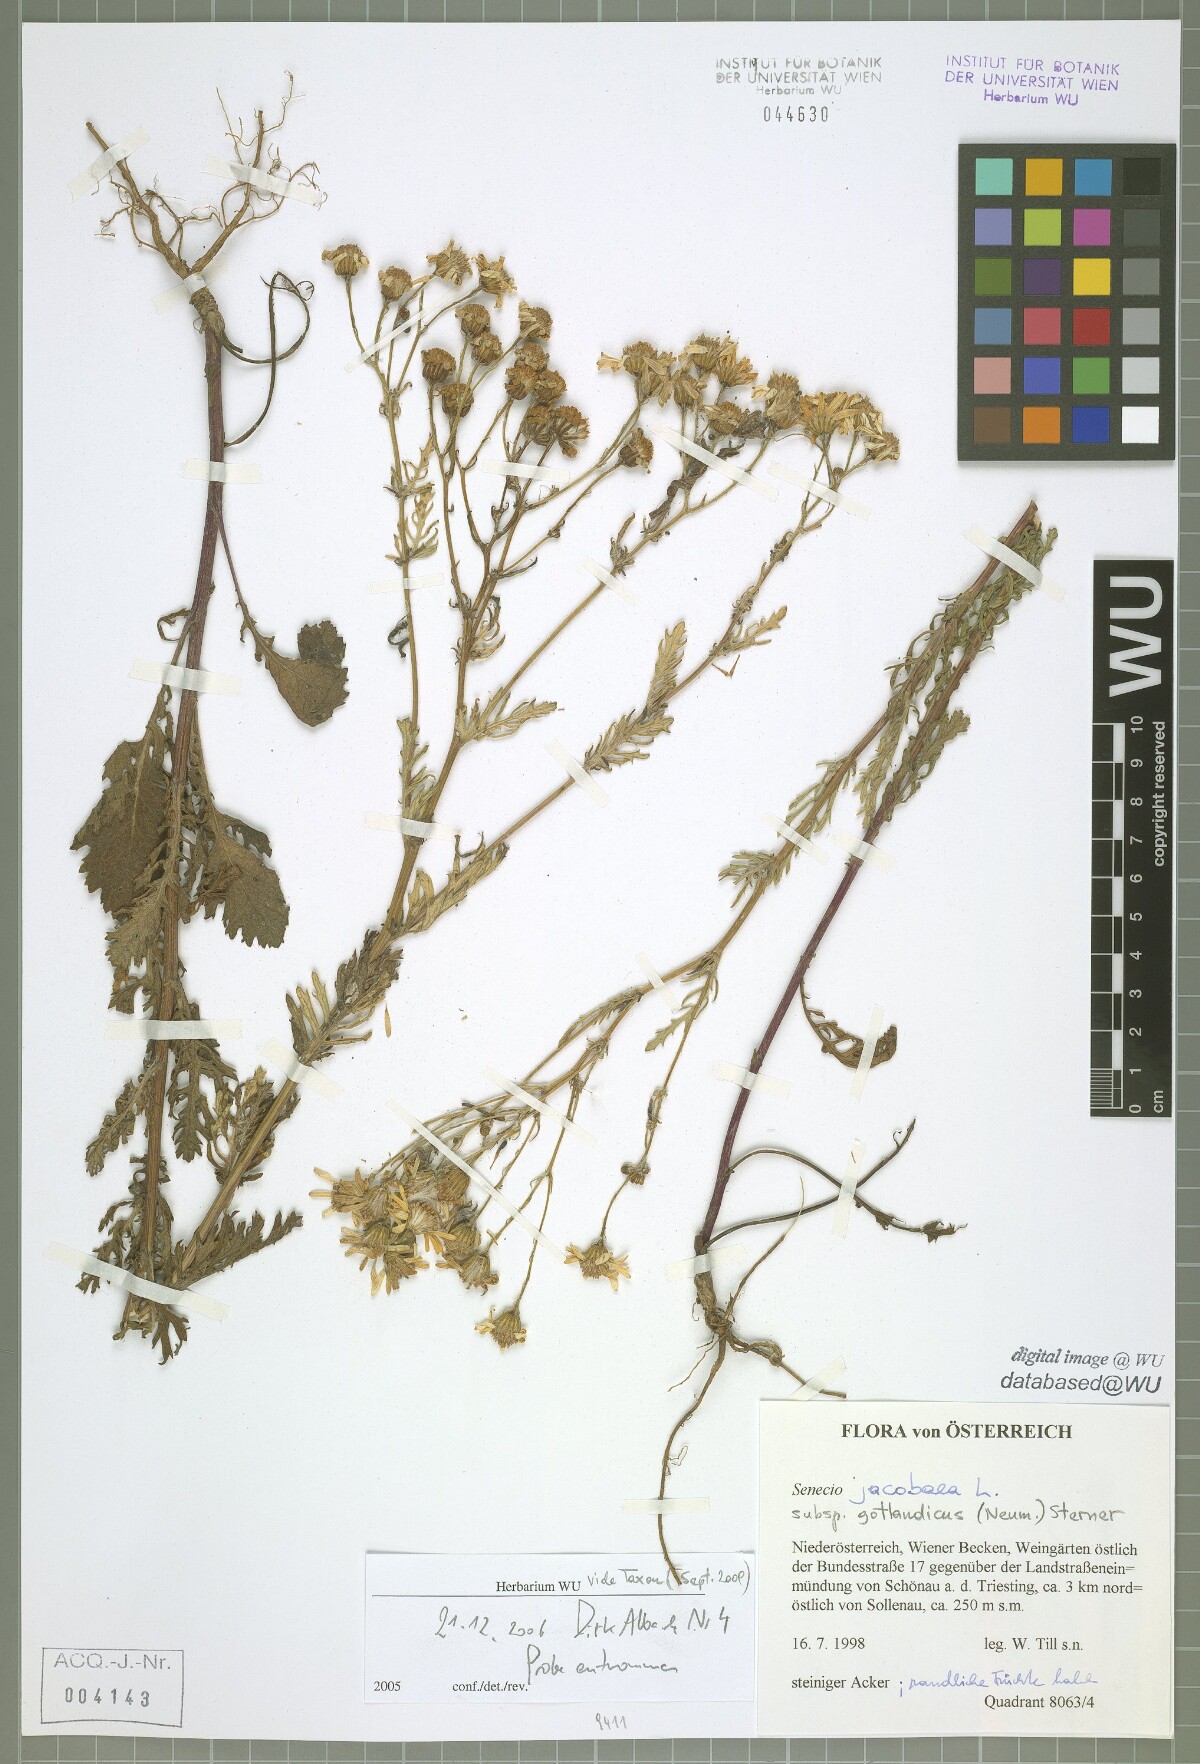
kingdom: Plantae
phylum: Tracheophyta
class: Magnoliopsida
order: Asterales
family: Asteraceae
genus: Jacobaea
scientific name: Jacobaea vulgaris
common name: Stinking willie
